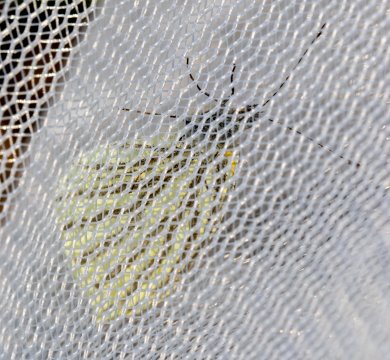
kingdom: Animalia
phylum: Arthropoda
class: Insecta
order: Lepidoptera
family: Pieridae
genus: Pieris
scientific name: Pieris oleracea
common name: Mustard White
